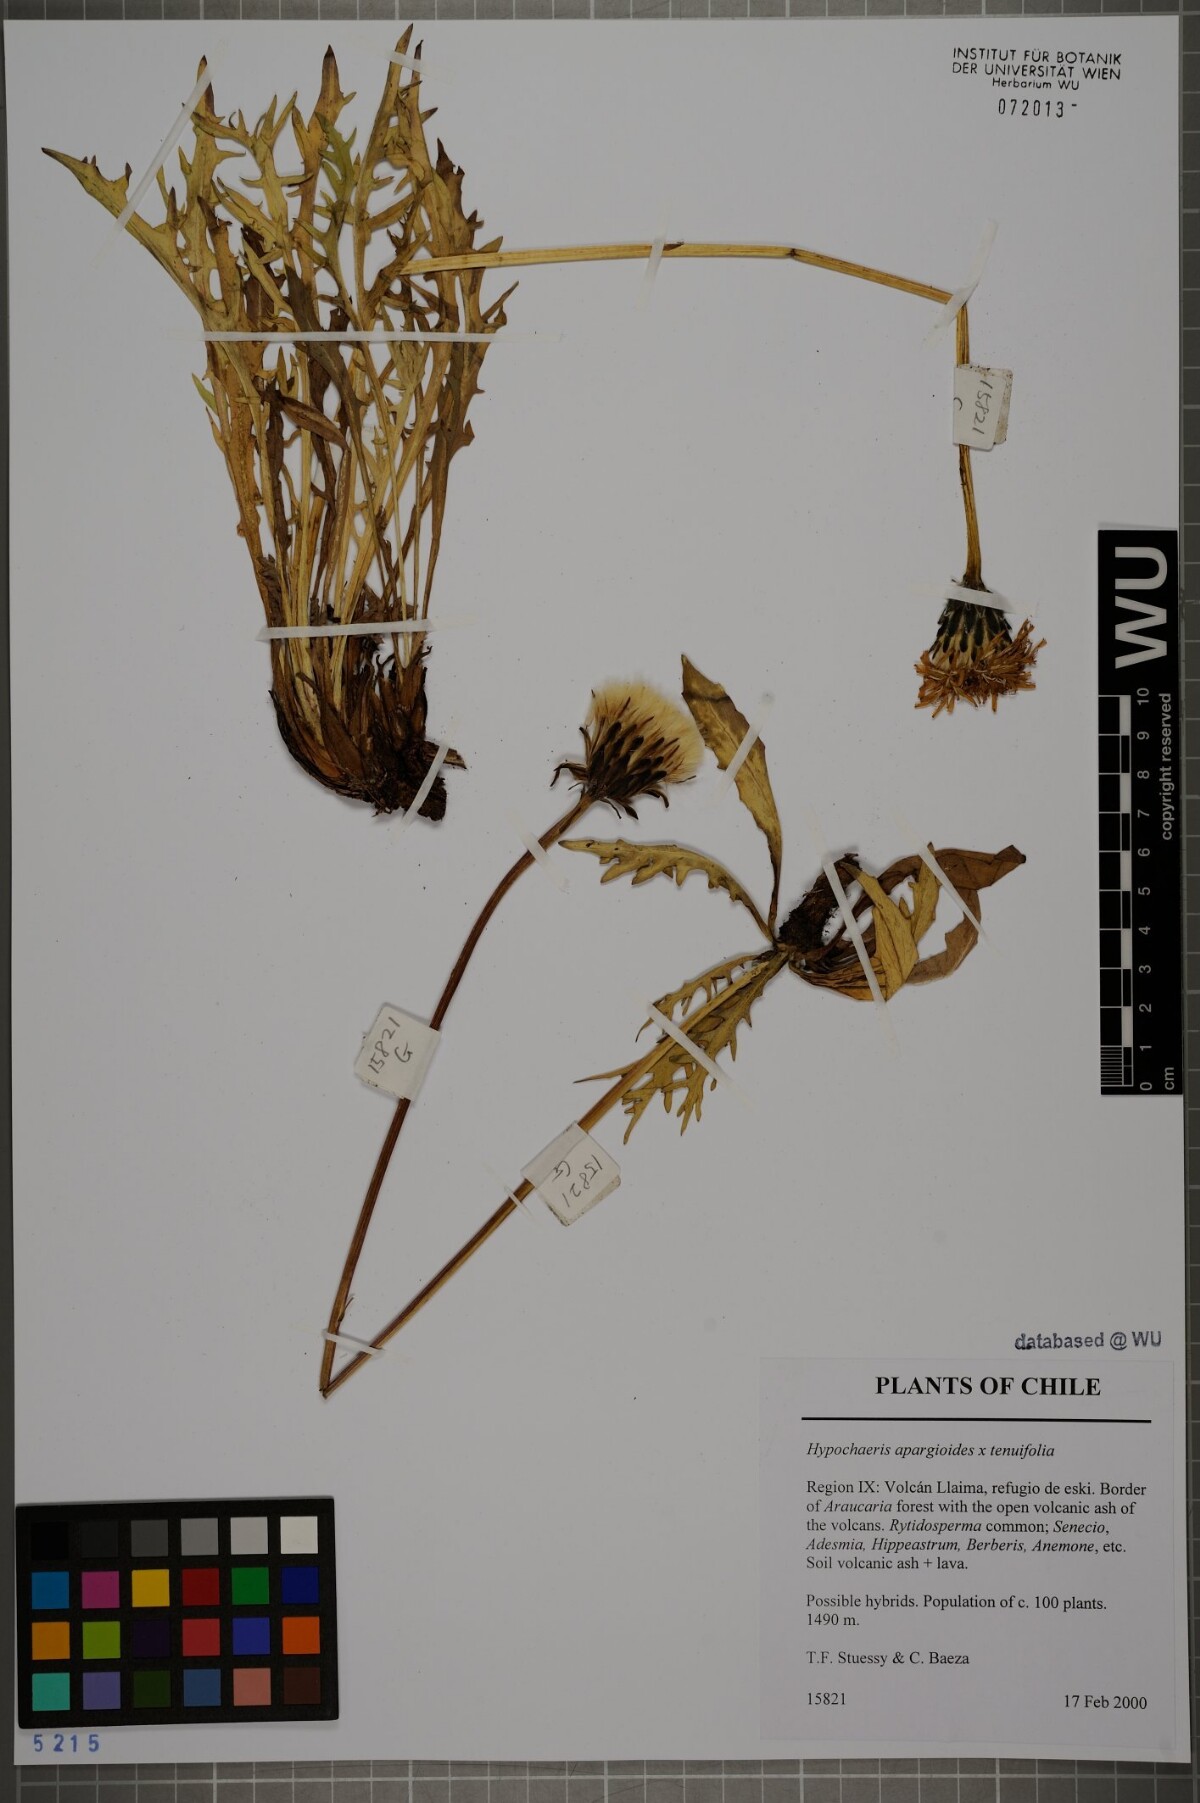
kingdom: Plantae
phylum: Tracheophyta
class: Magnoliopsida
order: Asterales
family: Asteraceae
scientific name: Asteraceae
